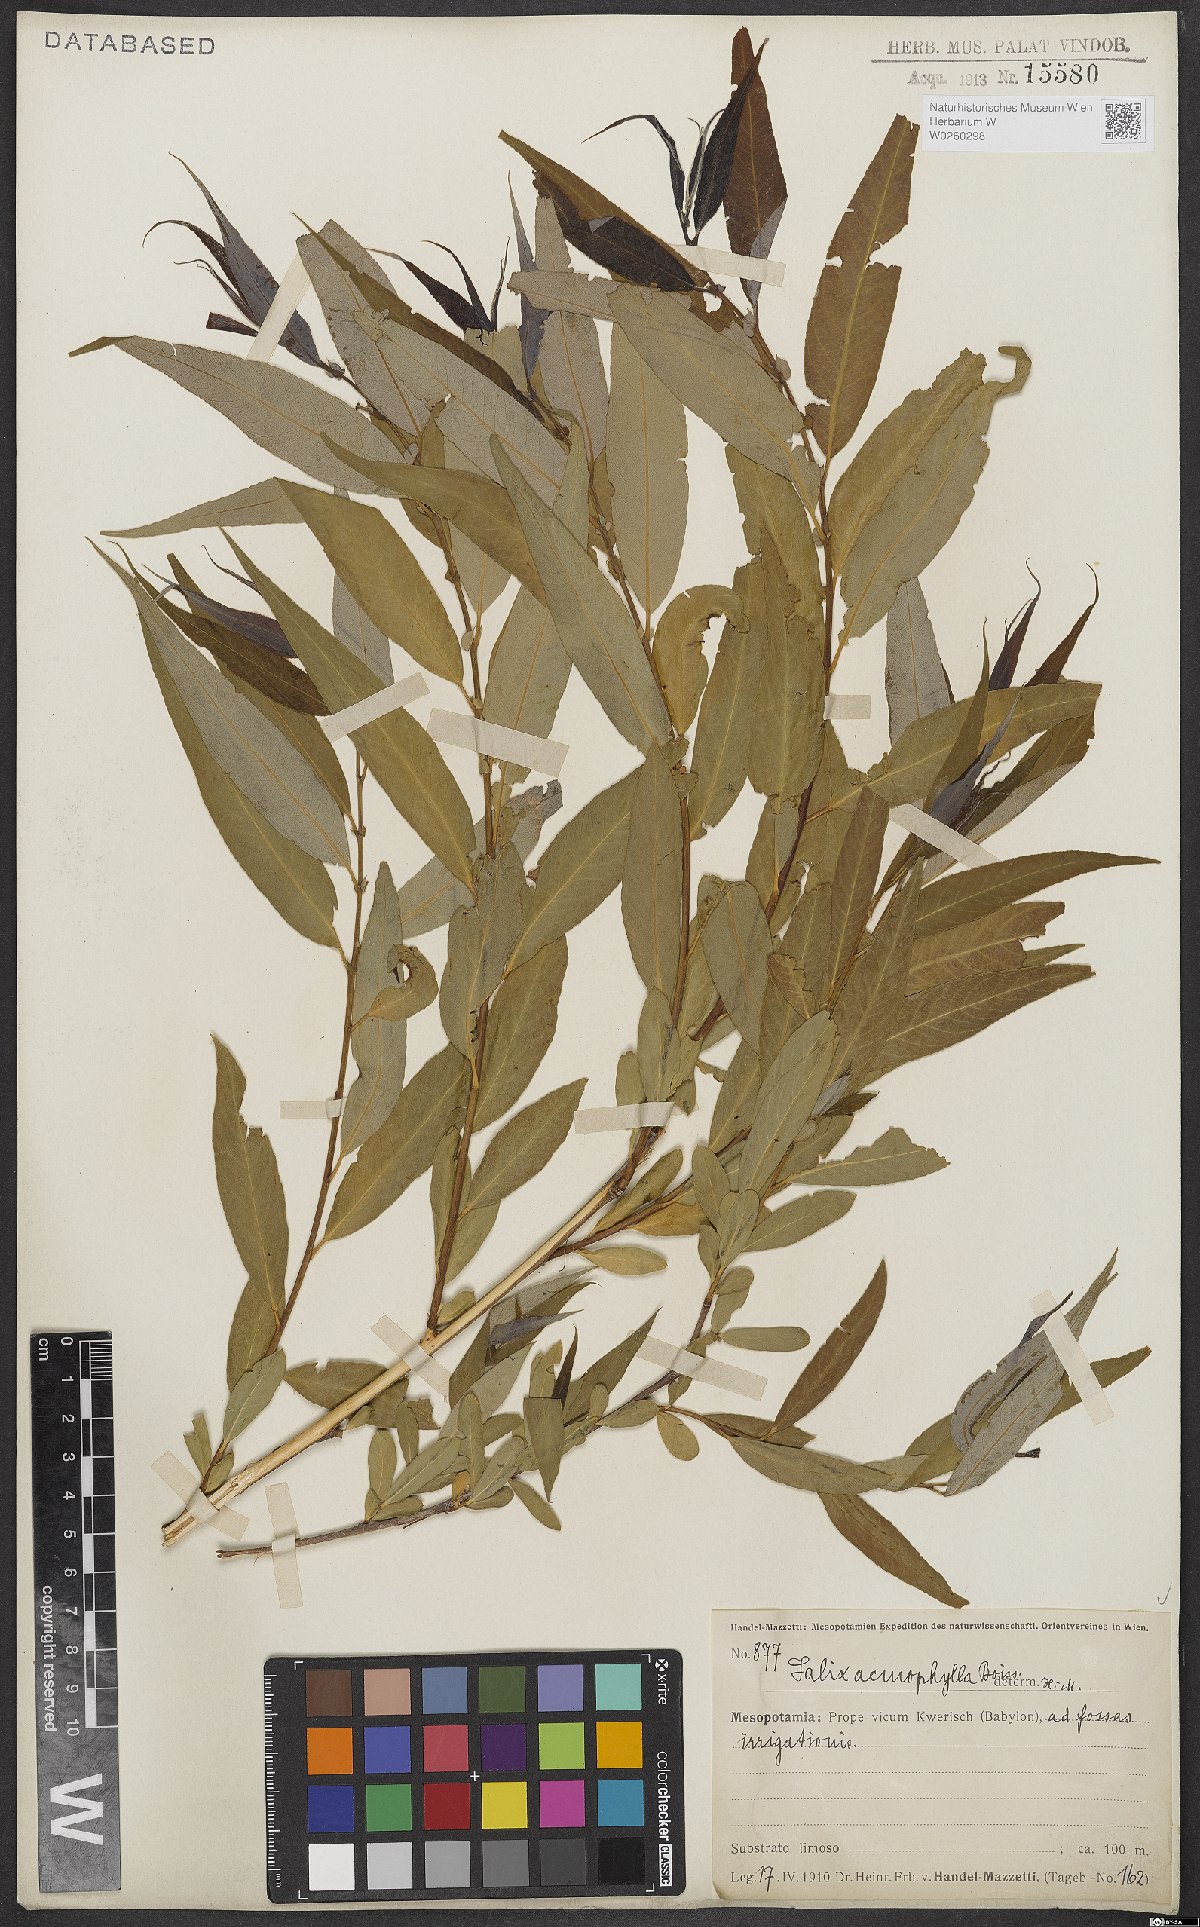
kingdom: Plantae
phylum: Tracheophyta
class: Magnoliopsida
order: Malpighiales
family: Salicaceae
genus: Salix
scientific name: Salix acmophylla
